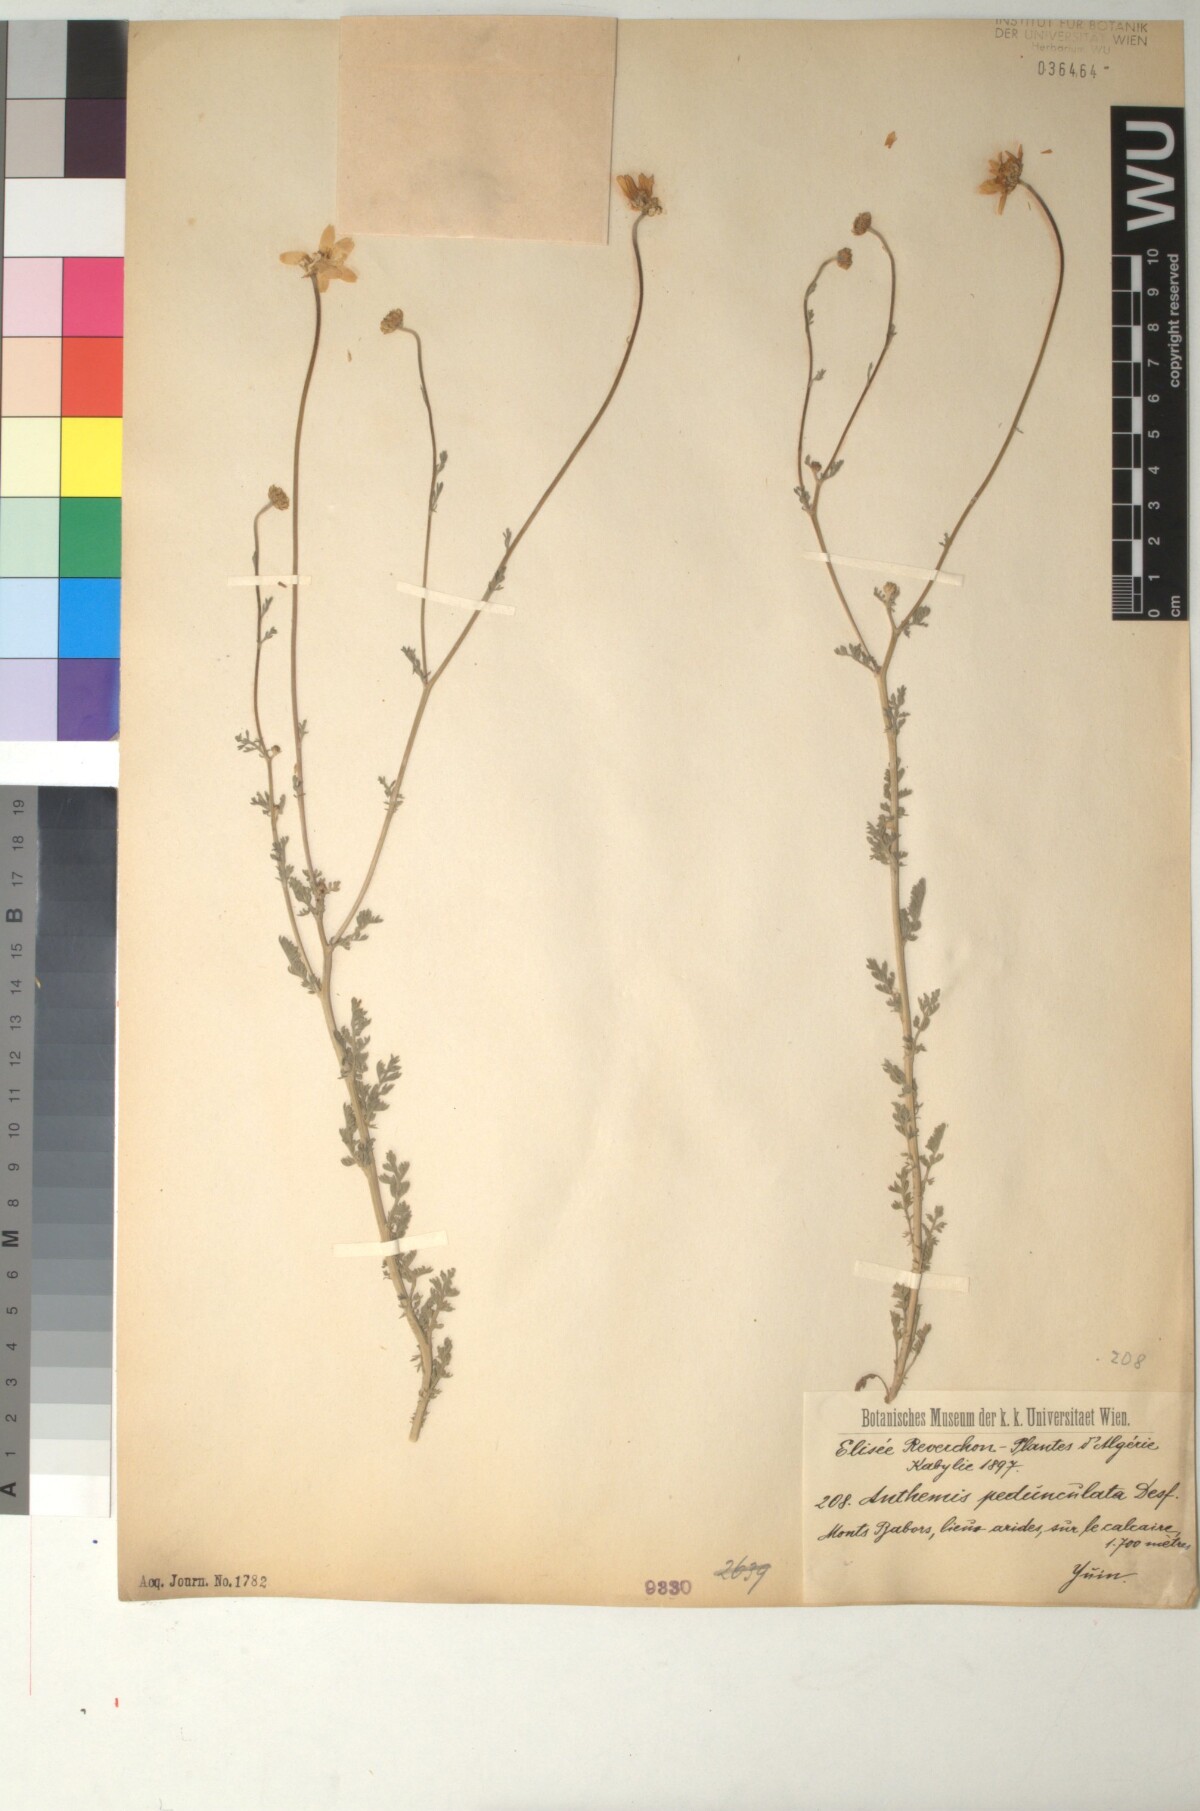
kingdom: Plantae
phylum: Tracheophyta
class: Magnoliopsida
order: Asterales
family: Asteraceae
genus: Anthemis
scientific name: Anthemis pedunculata
